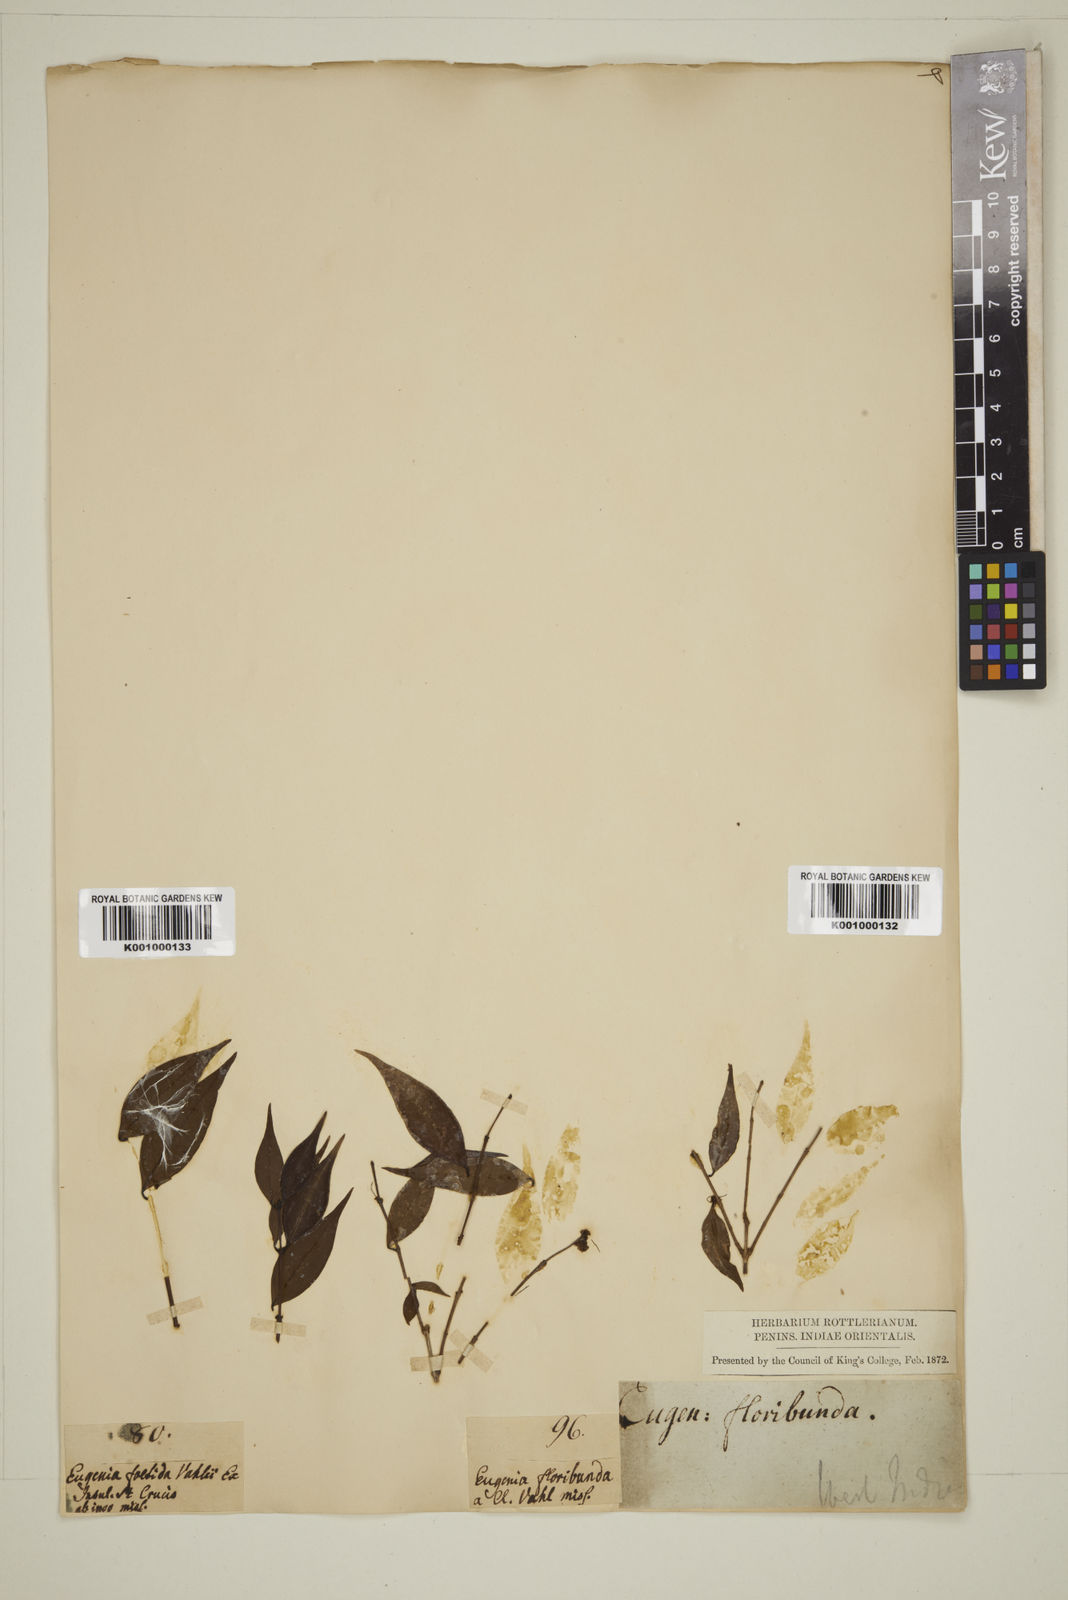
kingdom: Plantae
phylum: Tracheophyta
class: Magnoliopsida
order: Myrtales
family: Myrtaceae
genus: Eugenia
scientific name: Eugenia
